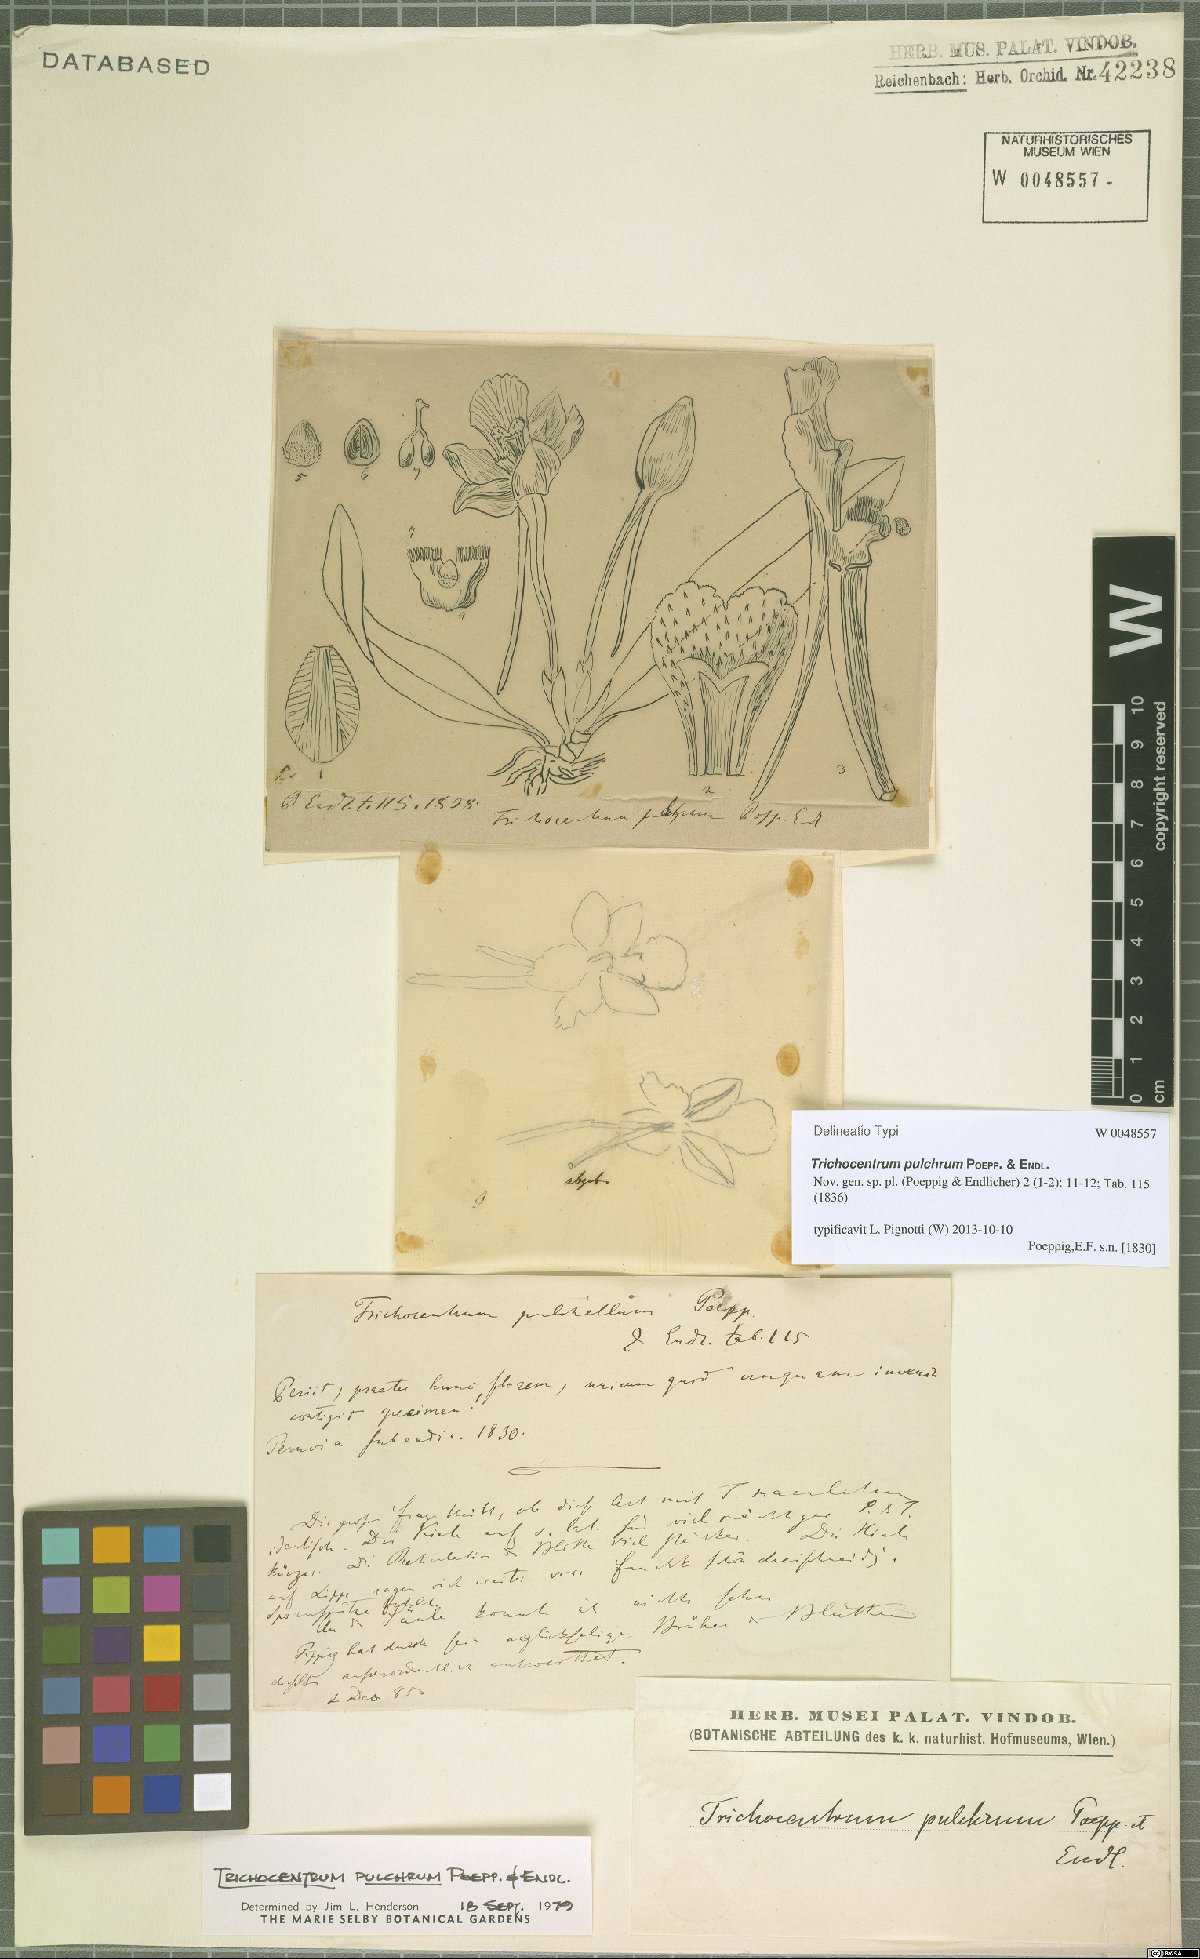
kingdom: Plantae
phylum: Tracheophyta
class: Liliopsida
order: Asparagales
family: Orchidaceae
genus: Trichocentrum
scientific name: Trichocentrum pulchrum
